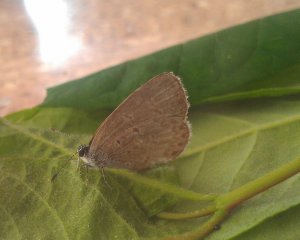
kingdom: Animalia
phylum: Arthropoda
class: Insecta
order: Lepidoptera
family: Lycaenidae
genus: Celastrina
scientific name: Celastrina
